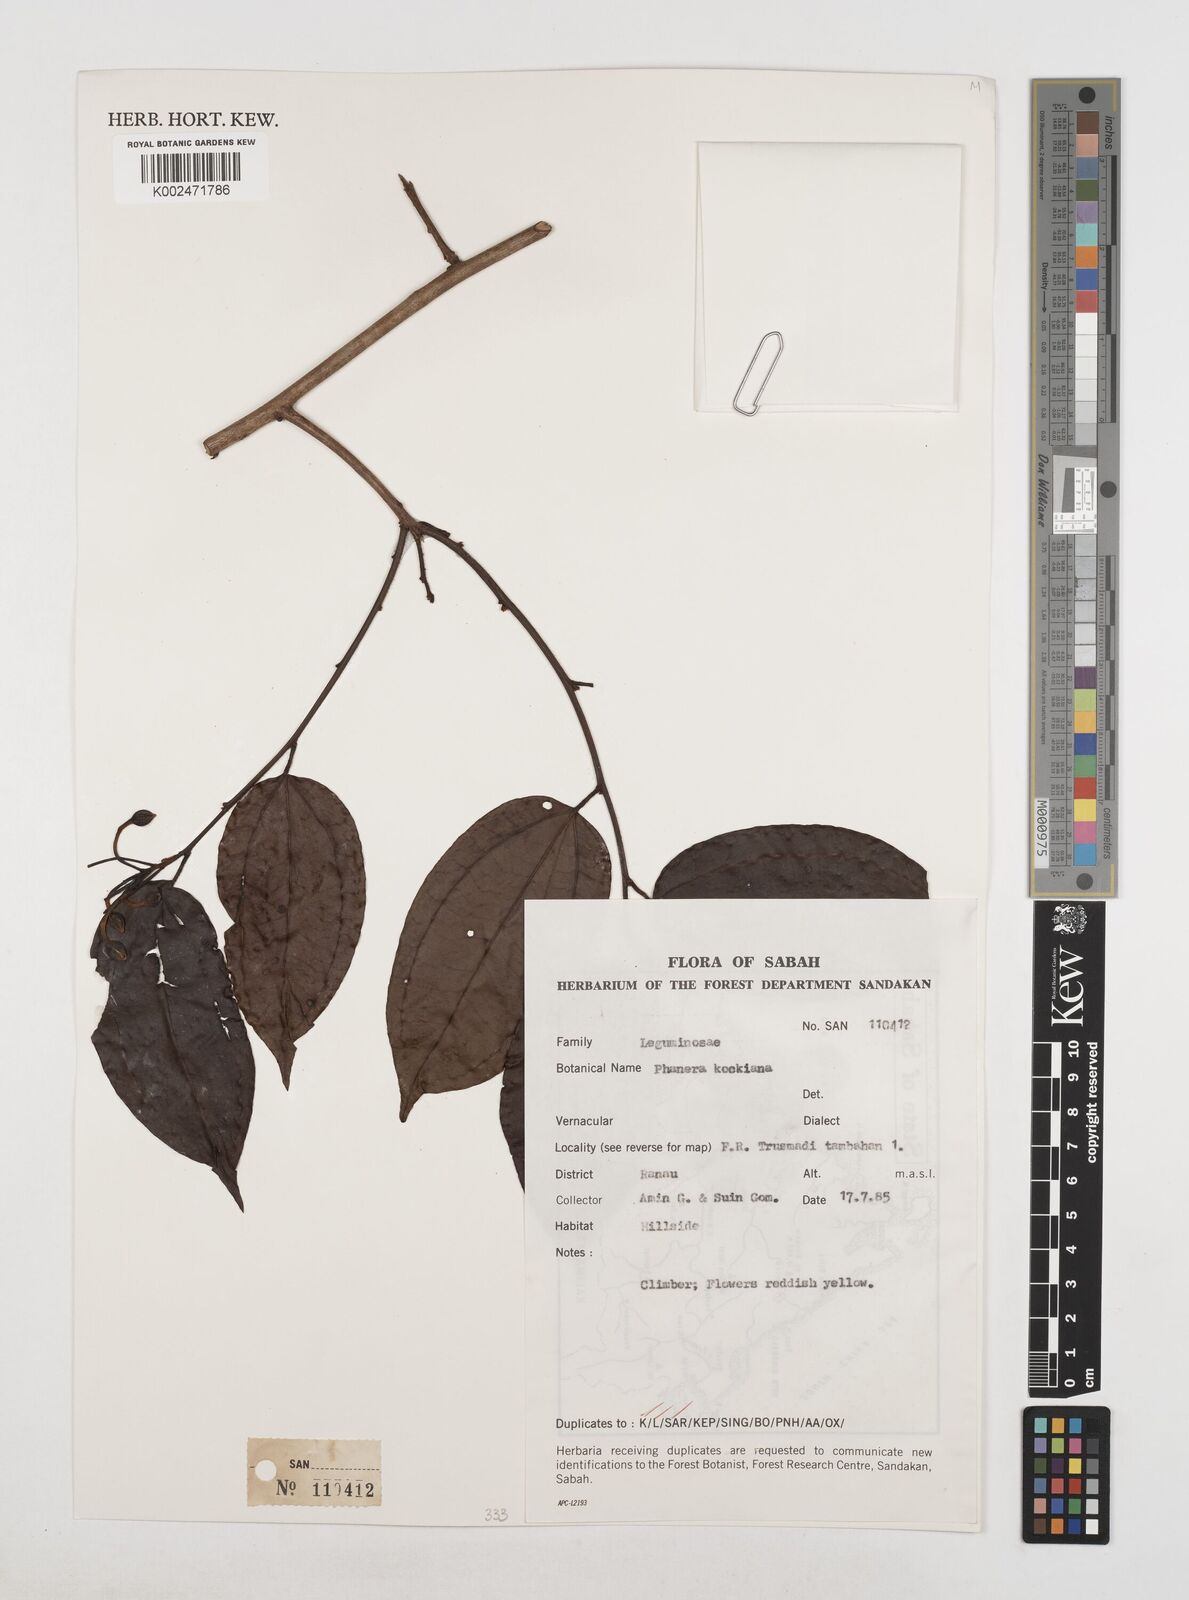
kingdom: Plantae
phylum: Tracheophyta
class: Magnoliopsida
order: Fabales
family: Fabaceae
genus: Phanera
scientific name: Phanera kockiana
